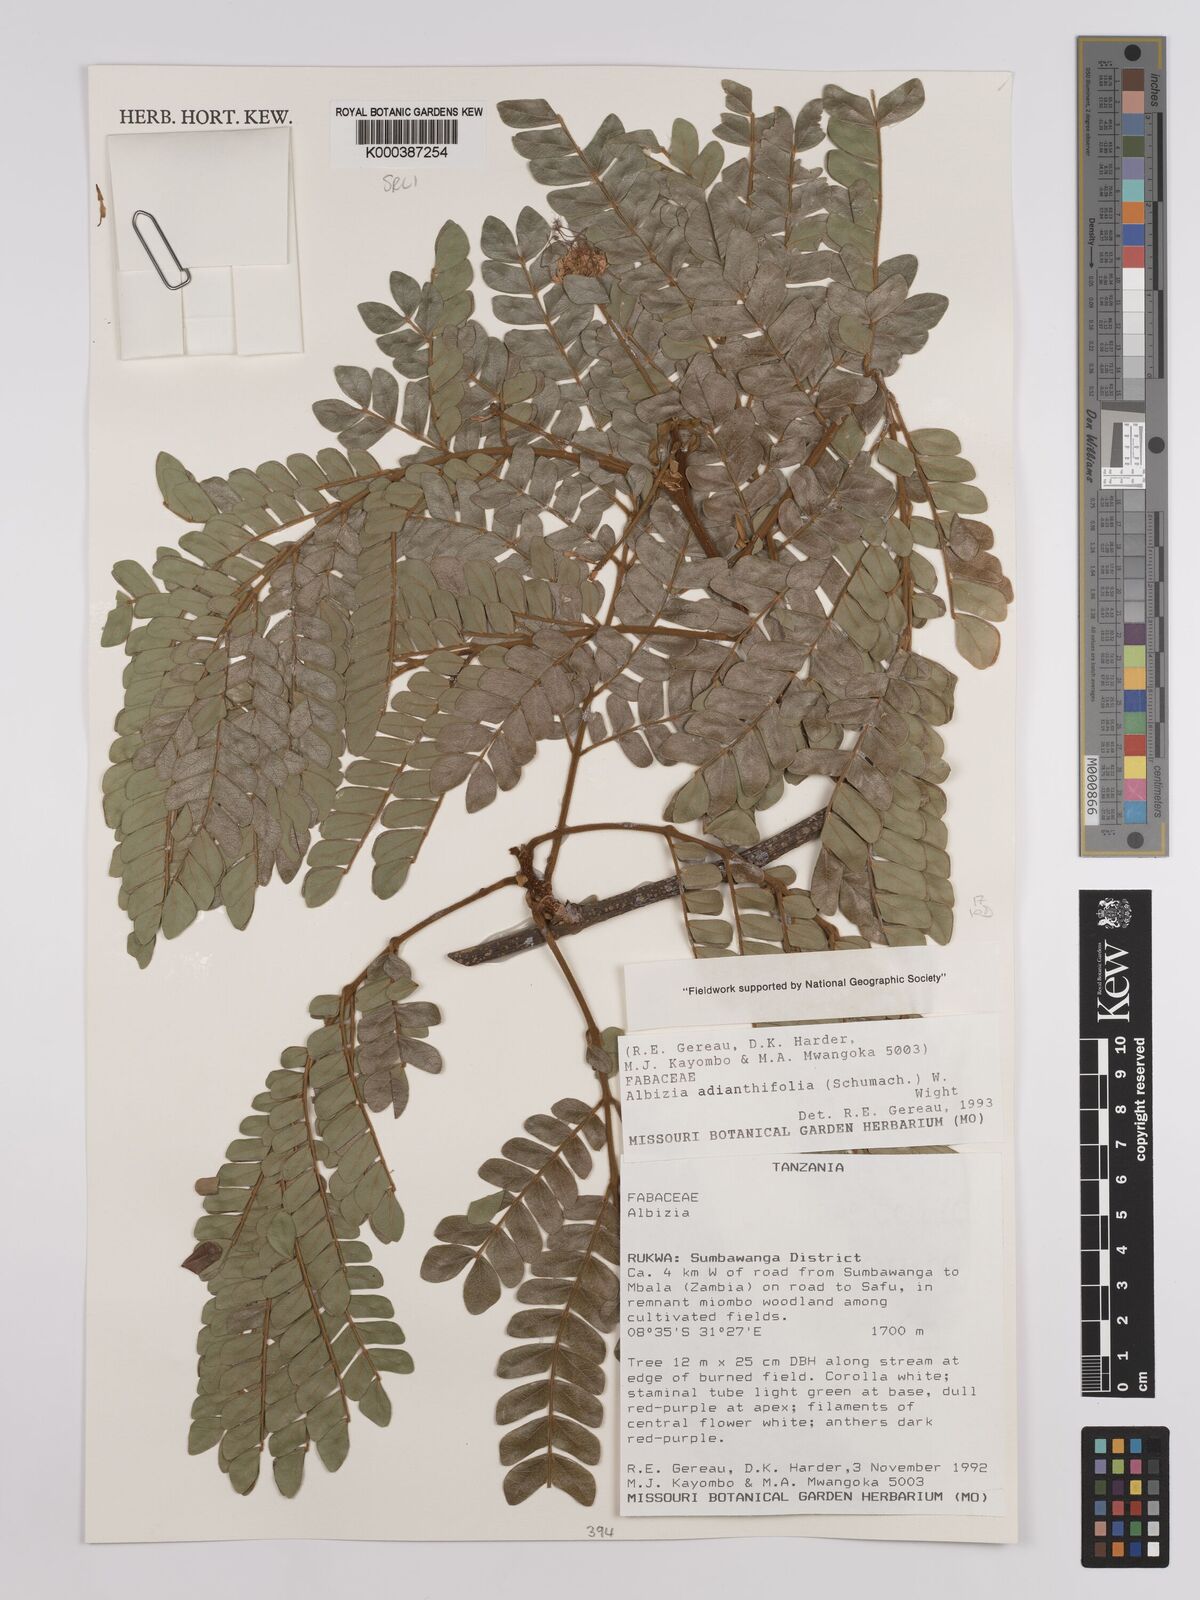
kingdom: Plantae
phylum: Tracheophyta
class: Magnoliopsida
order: Fabales
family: Fabaceae
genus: Albizia
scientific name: Albizia adianthifolia
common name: West african albizia
